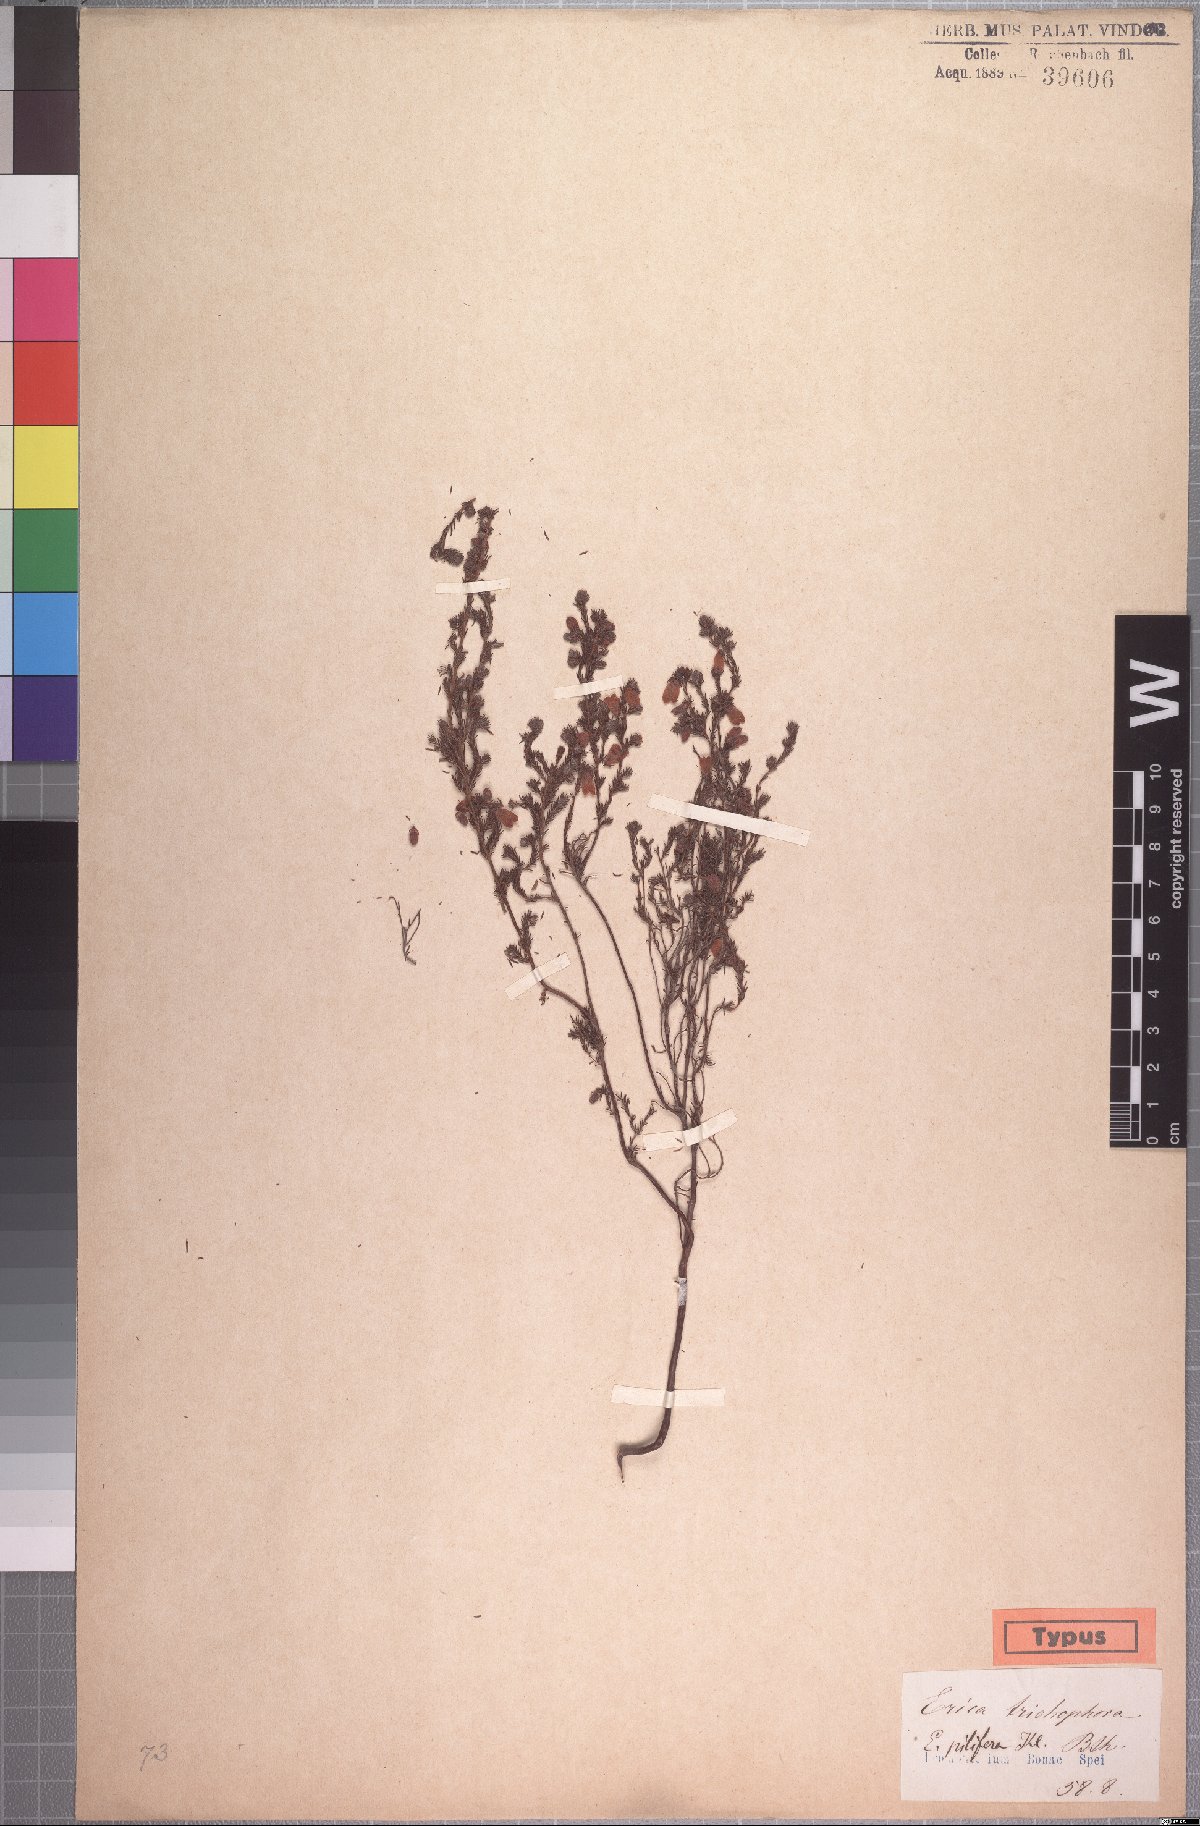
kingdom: Plantae
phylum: Tracheophyta
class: Magnoliopsida
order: Ericales
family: Ericaceae
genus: Erica
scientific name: Erica trichophora
